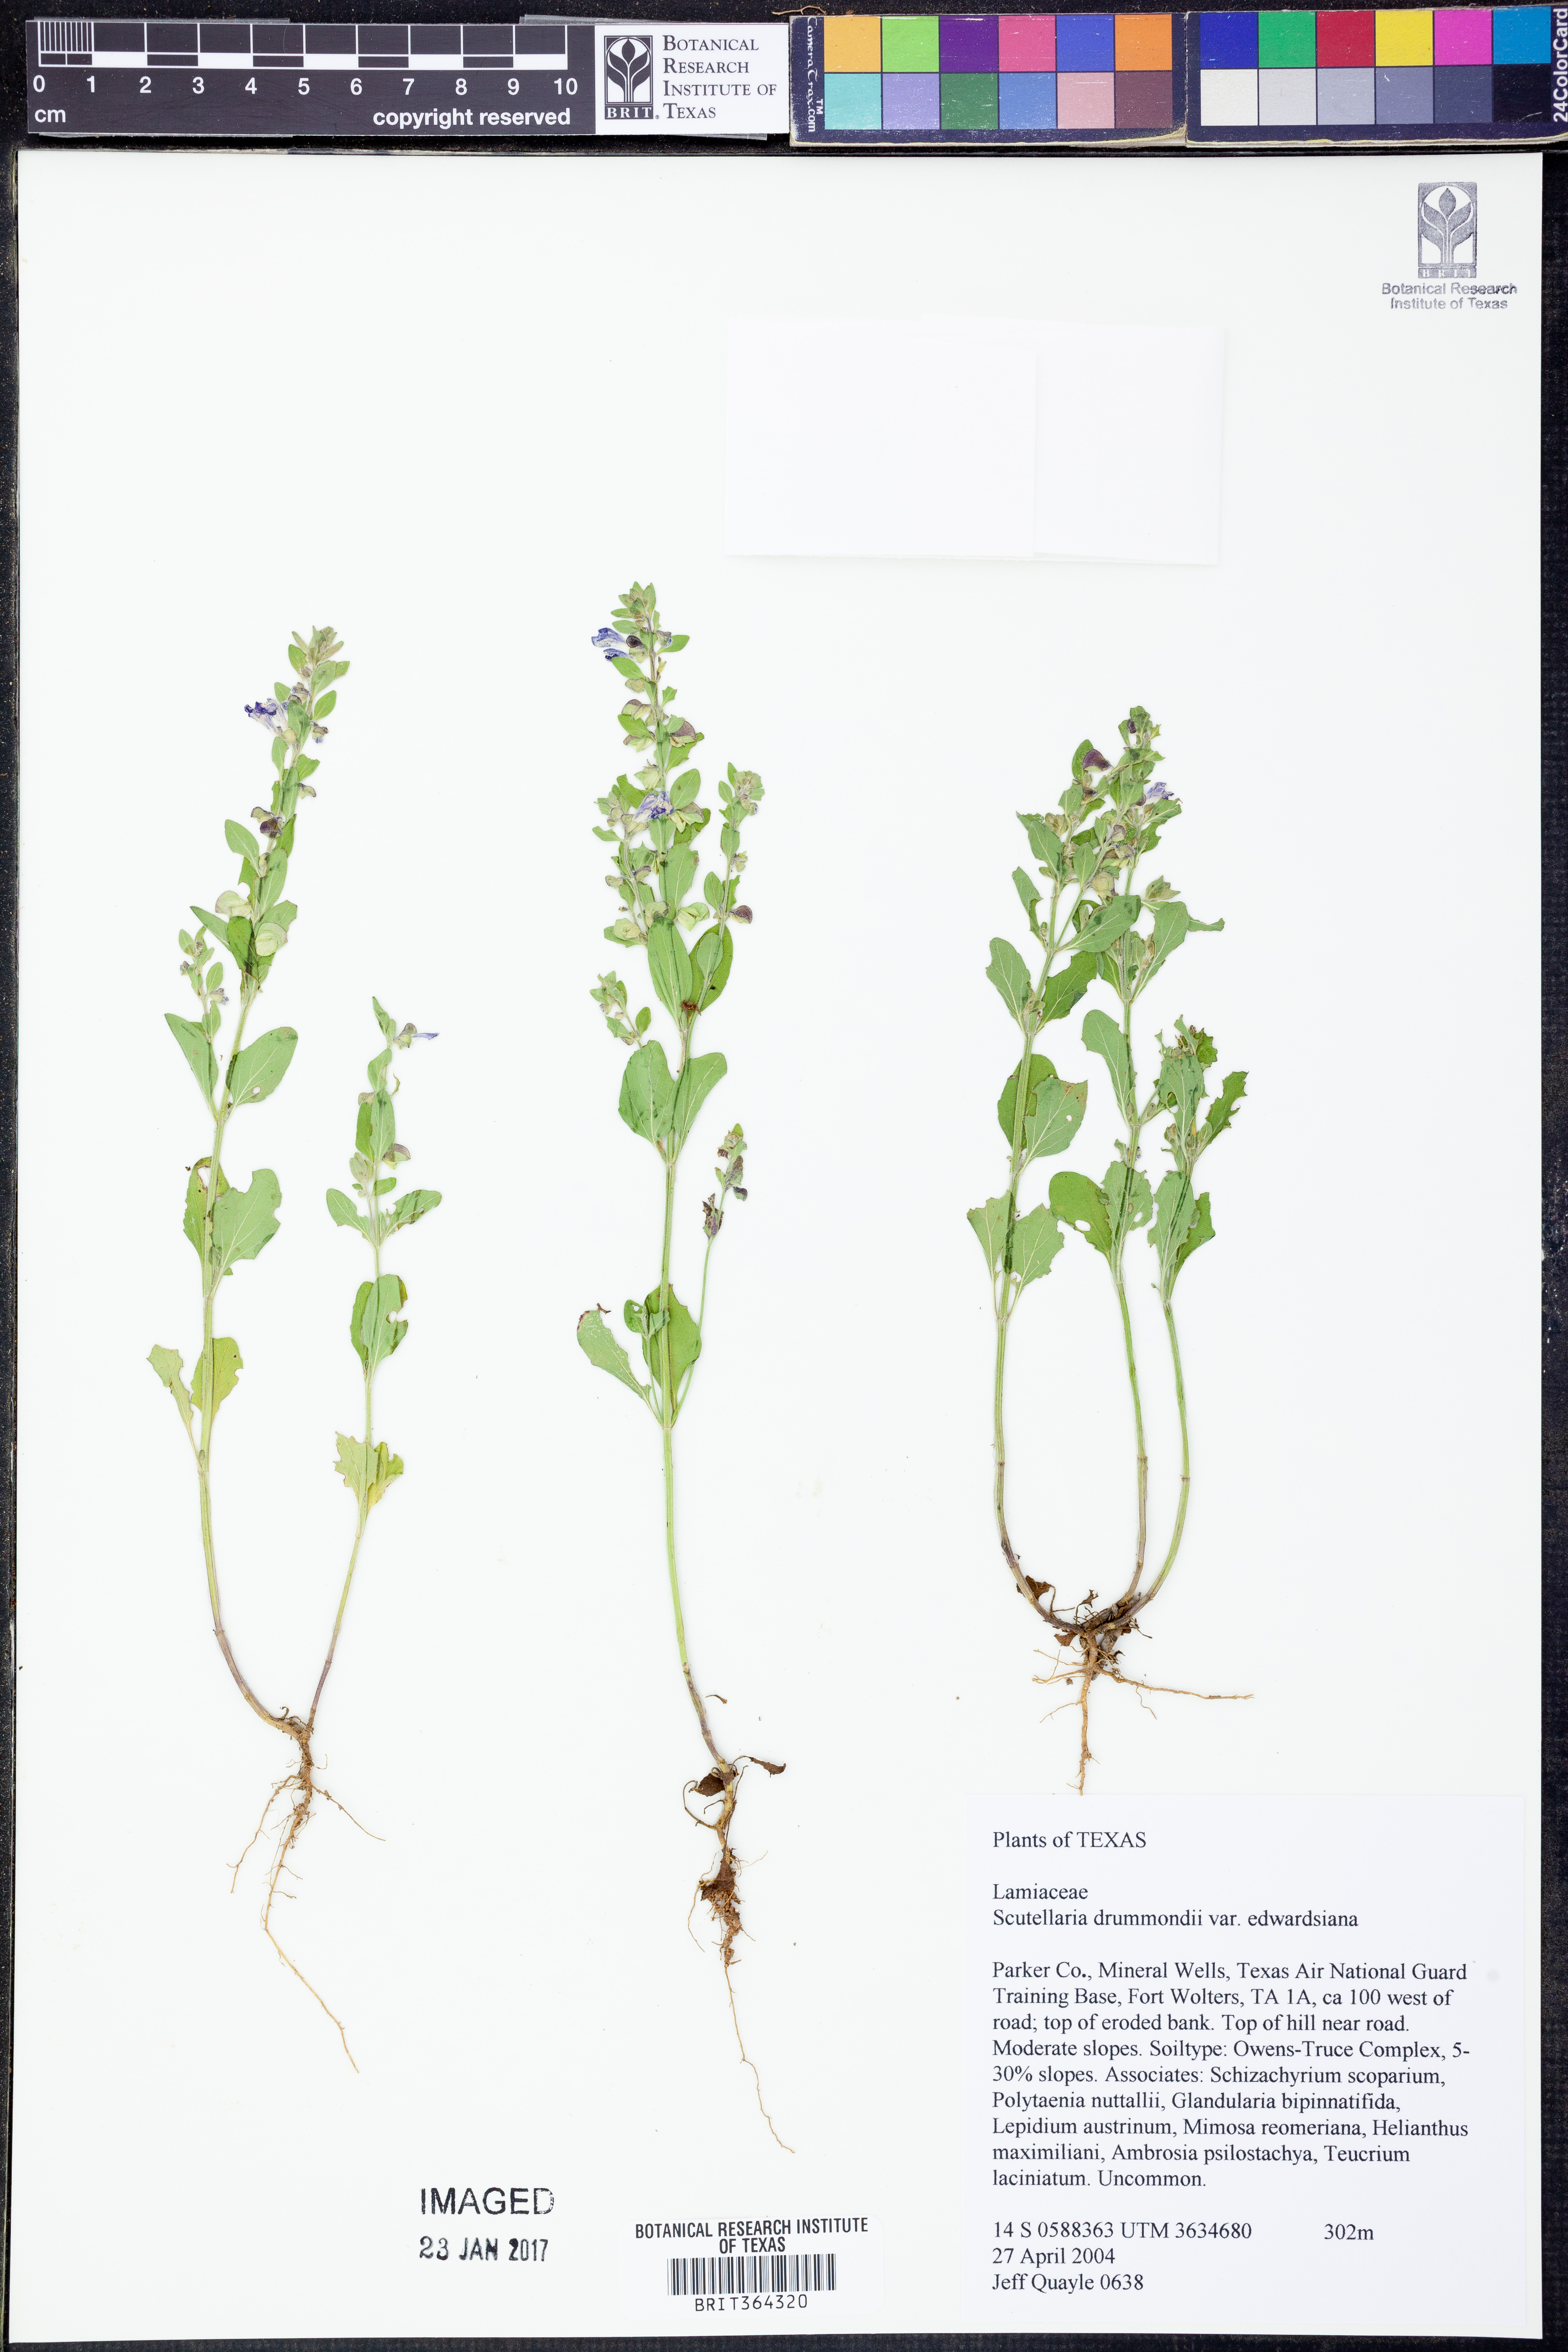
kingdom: Plantae
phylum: Tracheophyta
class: Magnoliopsida
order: Lamiales
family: Lamiaceae
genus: Scutellaria
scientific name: Scutellaria drummondii
